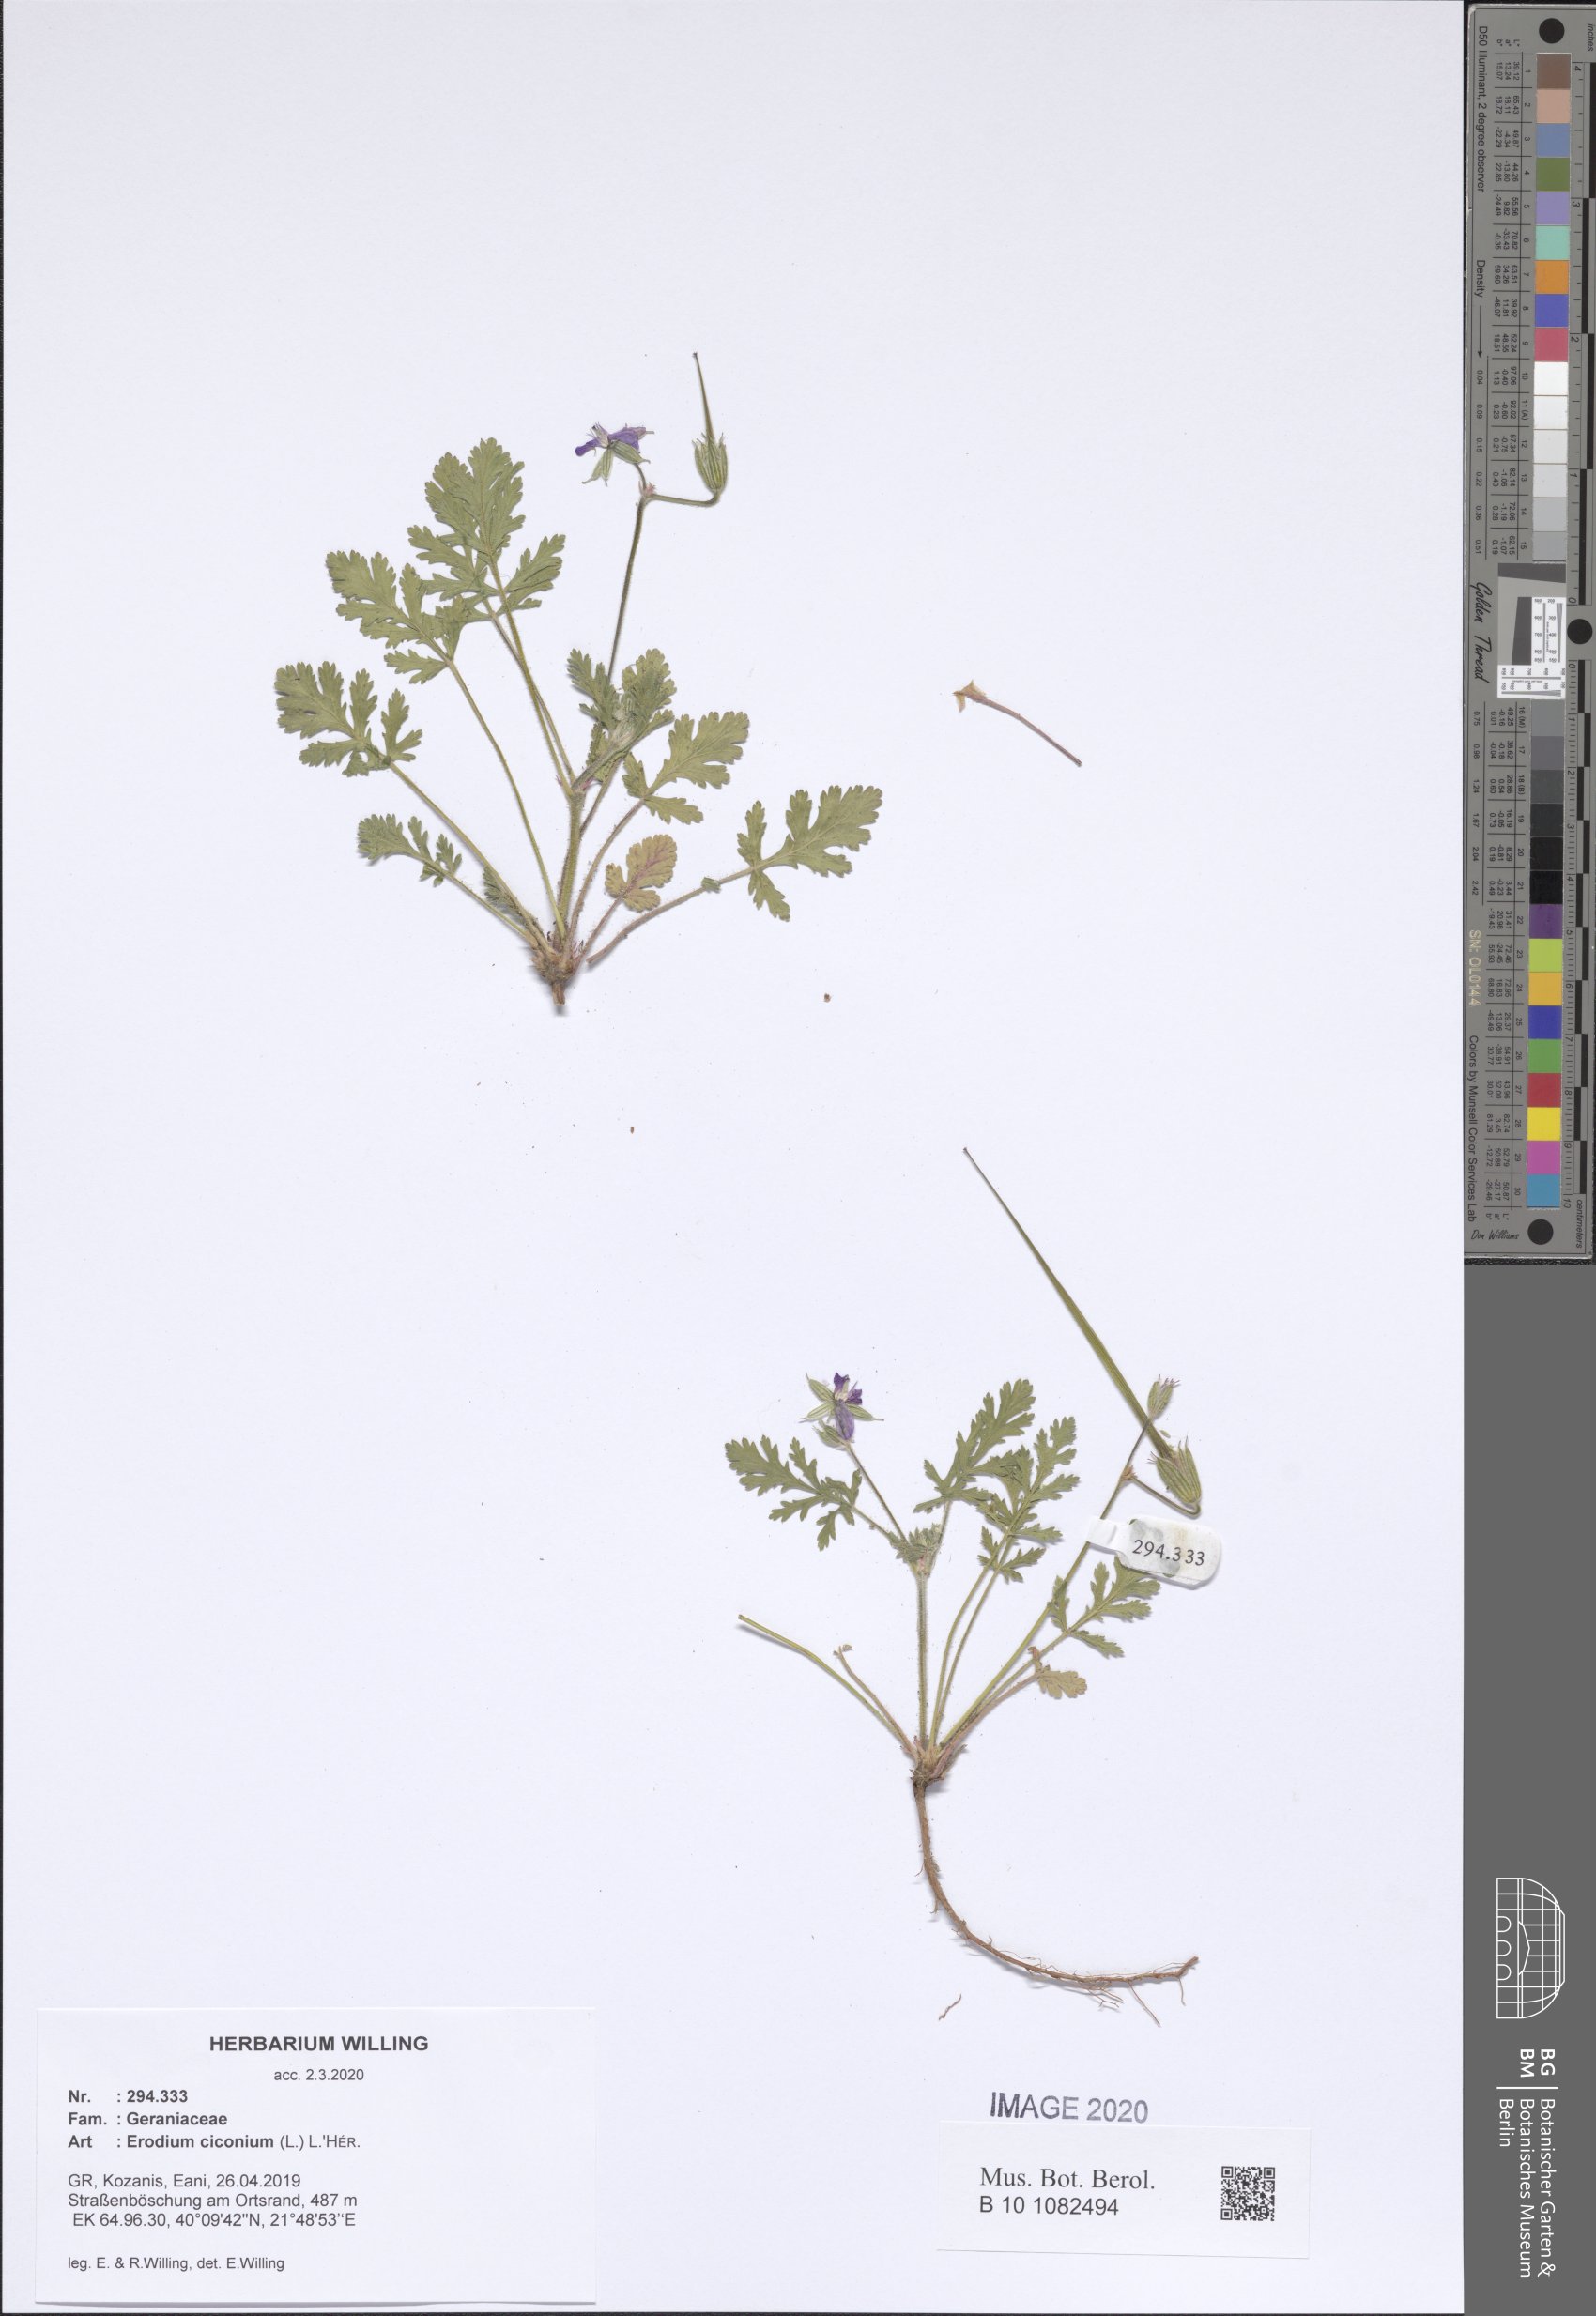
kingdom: Plantae
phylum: Tracheophyta
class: Magnoliopsida
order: Geraniales
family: Geraniaceae
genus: Erodium
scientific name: Erodium ciconium
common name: Common stork's bill
